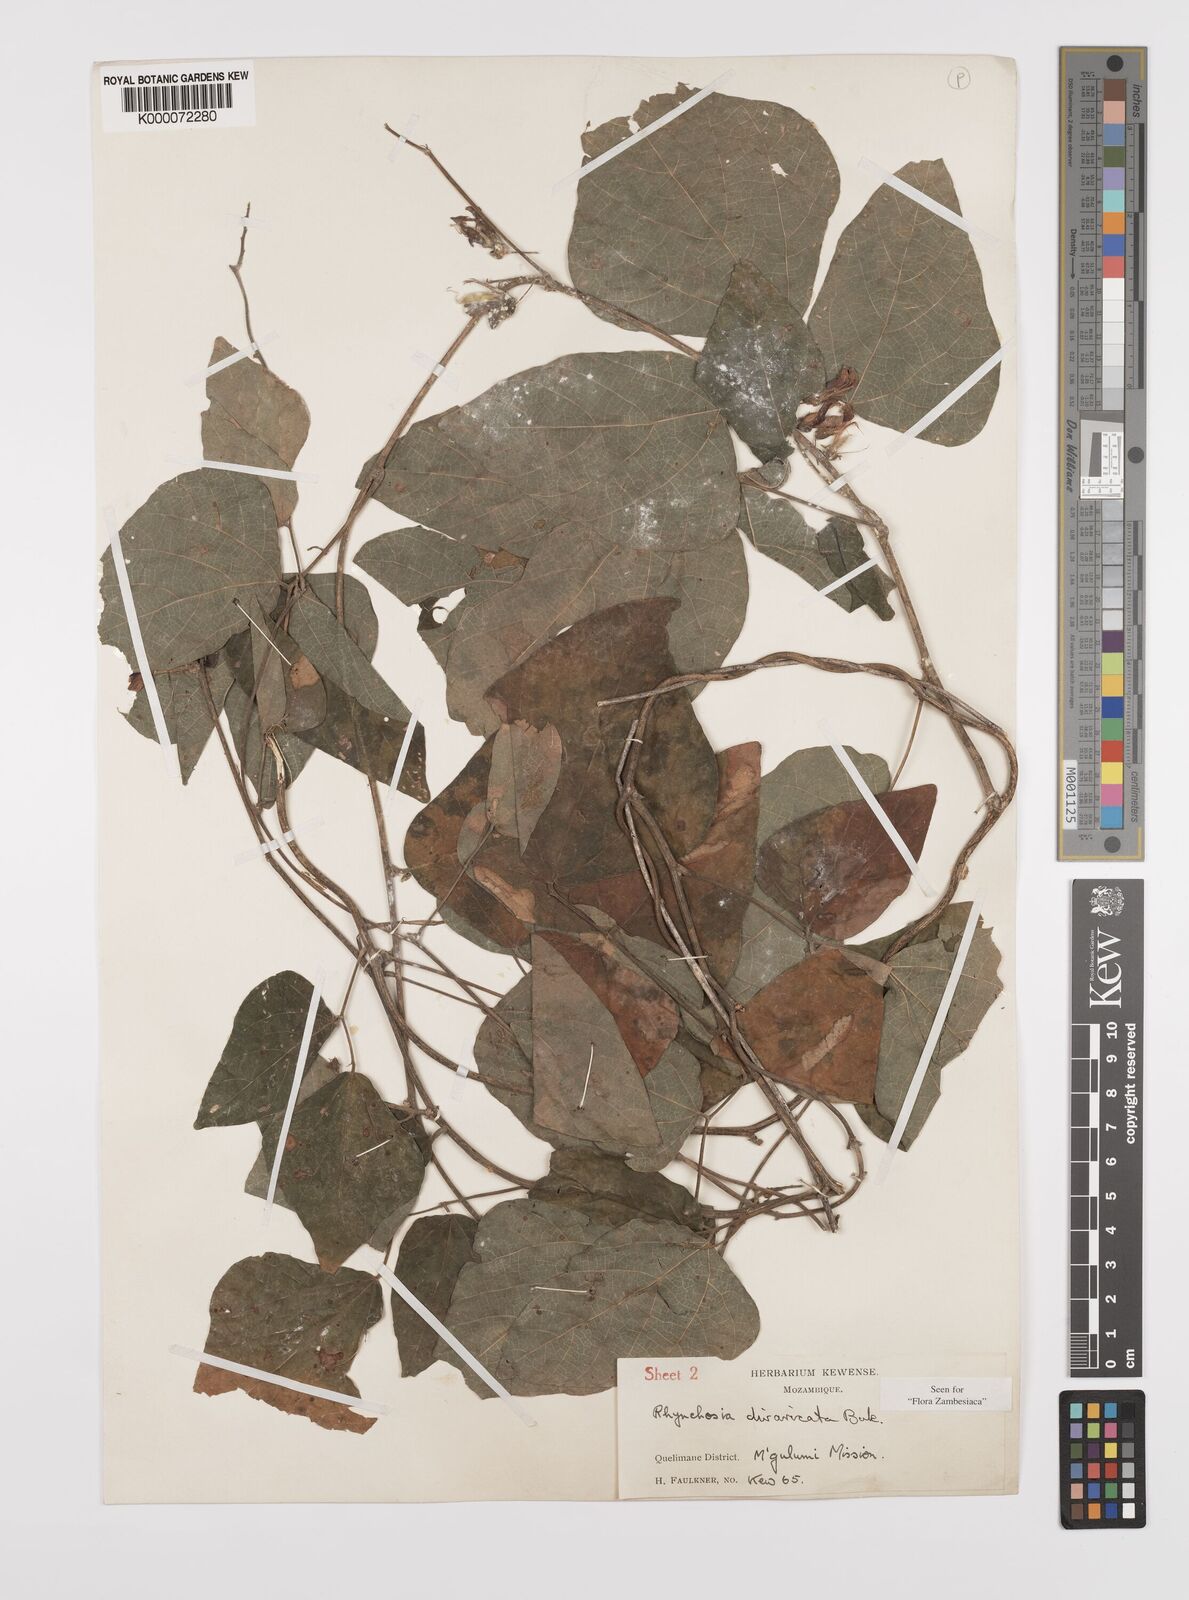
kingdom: Plantae
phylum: Tracheophyta
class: Magnoliopsida
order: Fabales
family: Fabaceae
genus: Rhynchosia
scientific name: Rhynchosia divaricata
